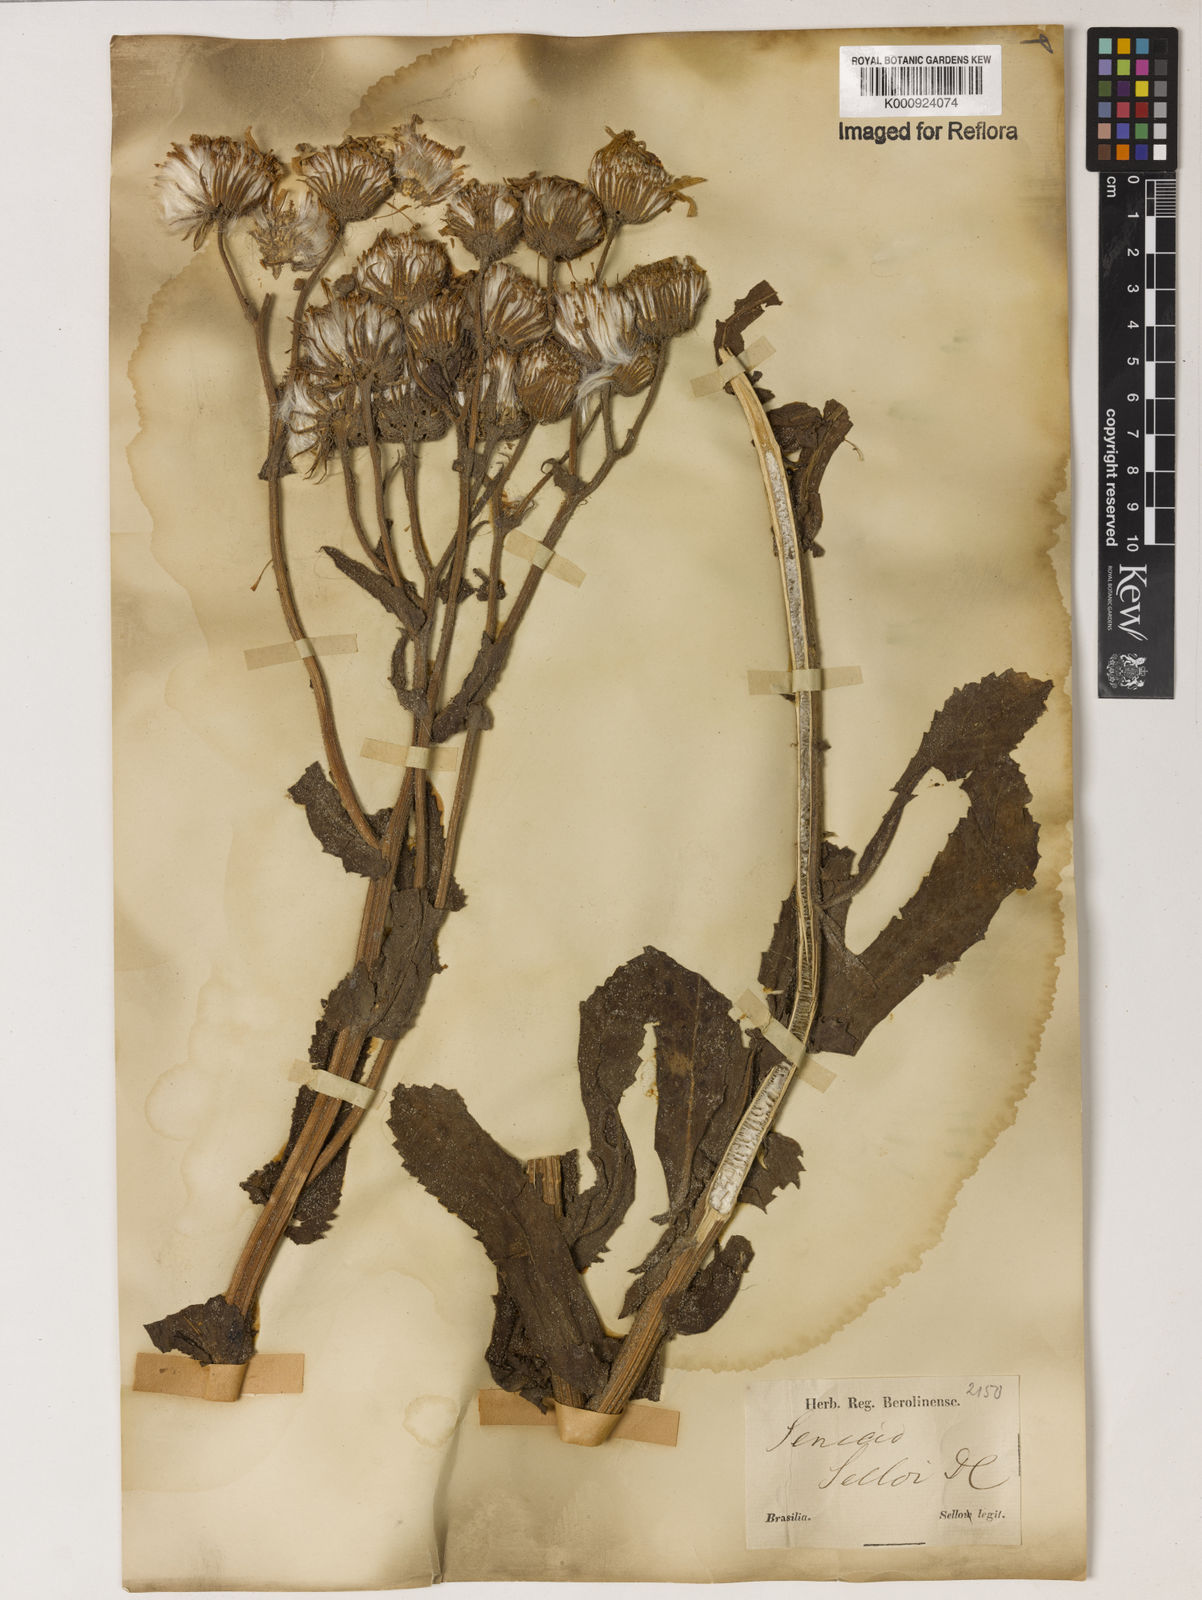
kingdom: Plantae
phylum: Tracheophyta
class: Magnoliopsida
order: Asterales
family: Asteraceae
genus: Senecio
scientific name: Senecio selloi
